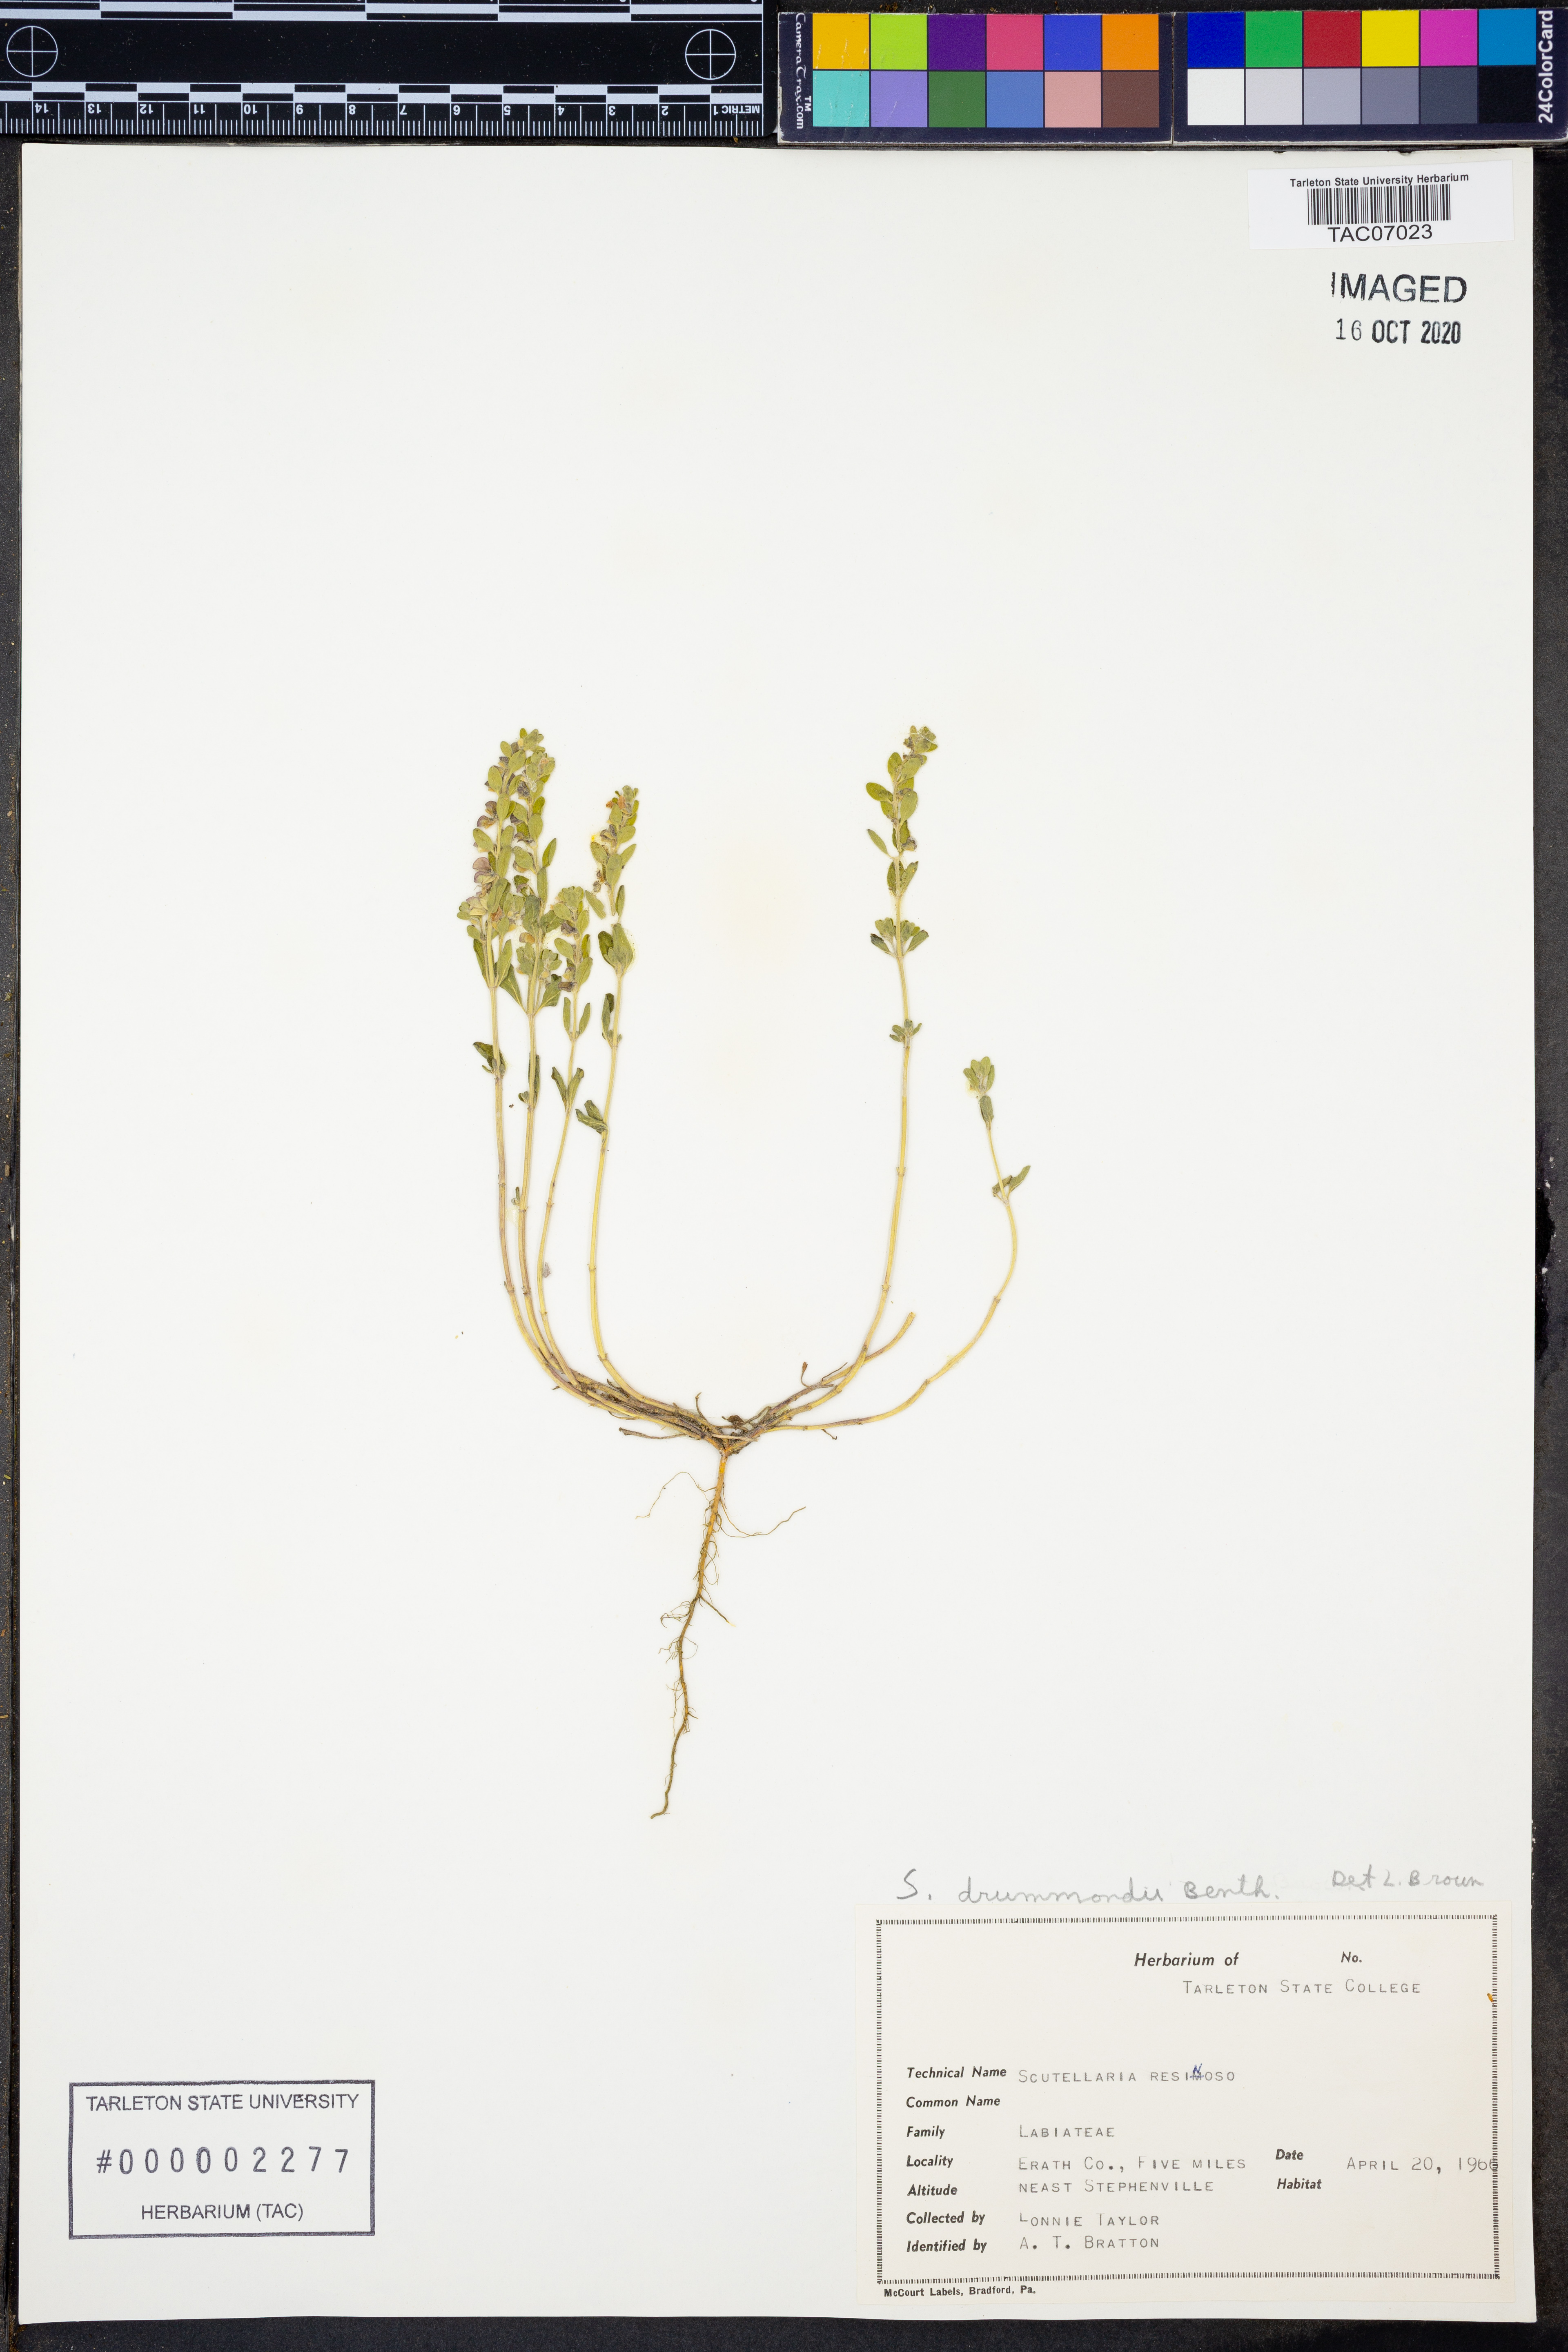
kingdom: Plantae
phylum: Tracheophyta
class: Magnoliopsida
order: Lamiales
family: Lamiaceae
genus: Scutellaria
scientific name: Scutellaria drummondii
